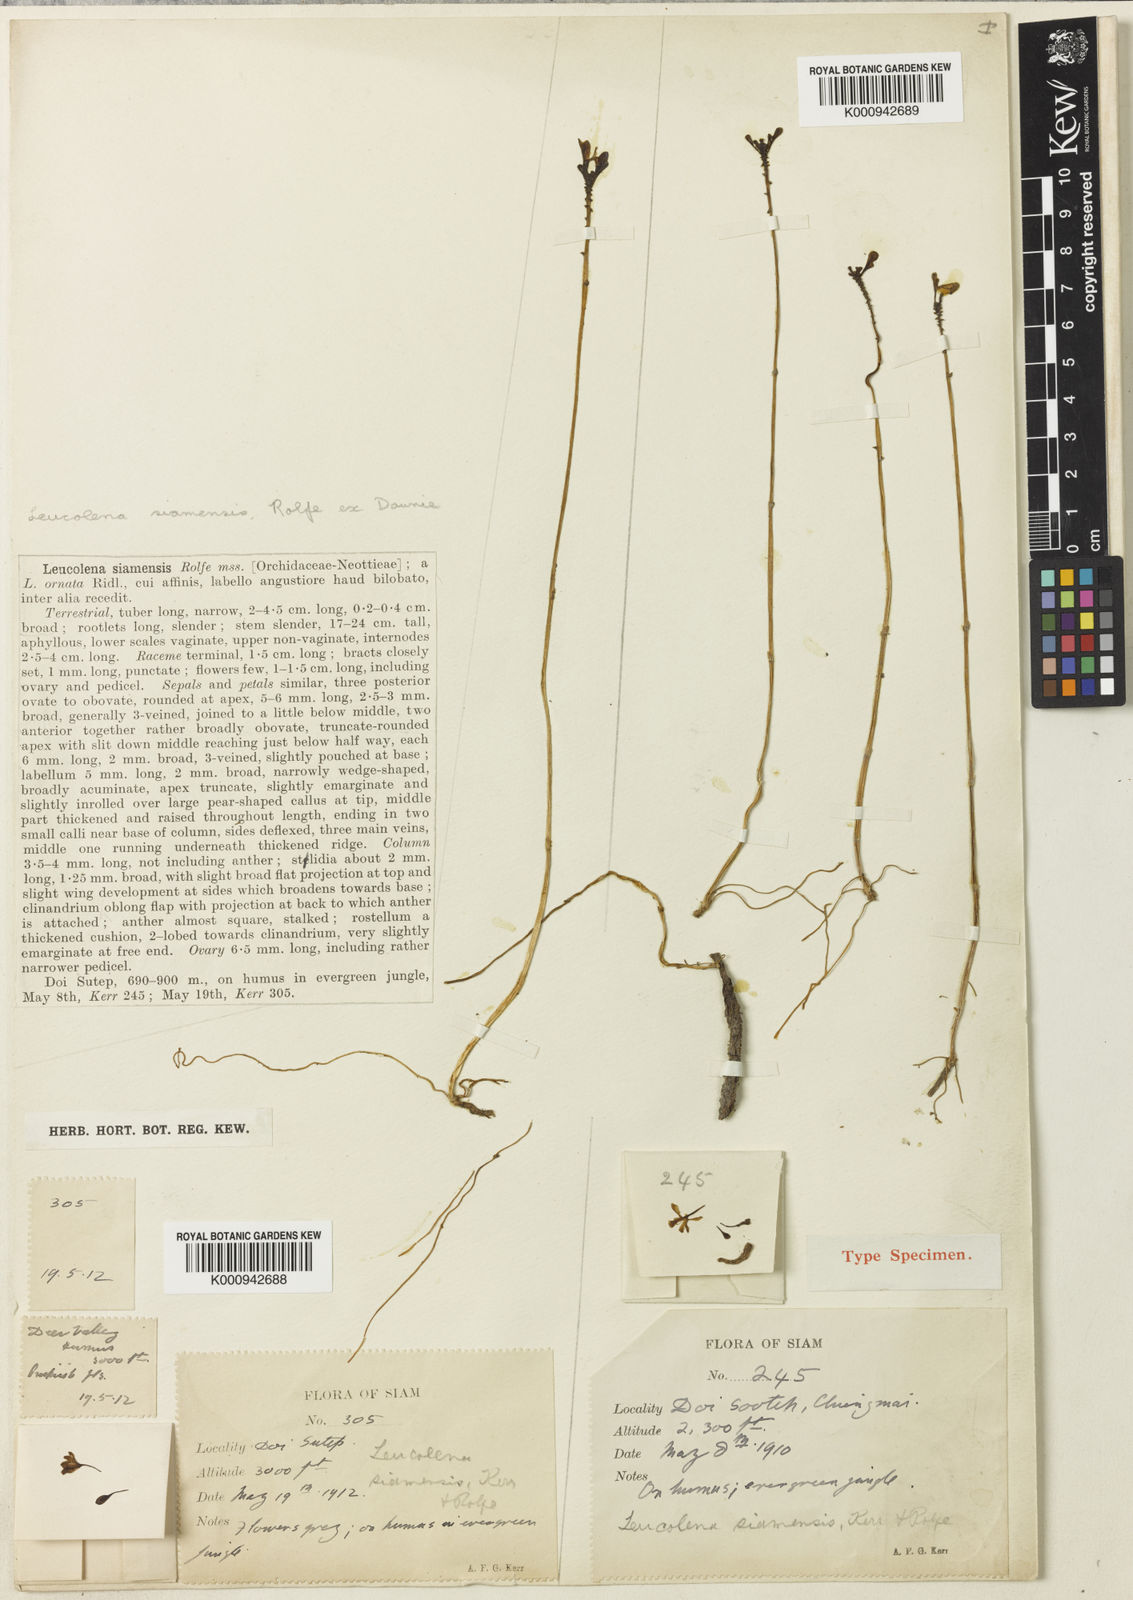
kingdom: Plantae
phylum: Tracheophyta
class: Liliopsida
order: Asparagales
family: Orchidaceae
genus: Didymoplexiella
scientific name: Didymoplexiella siamensis
